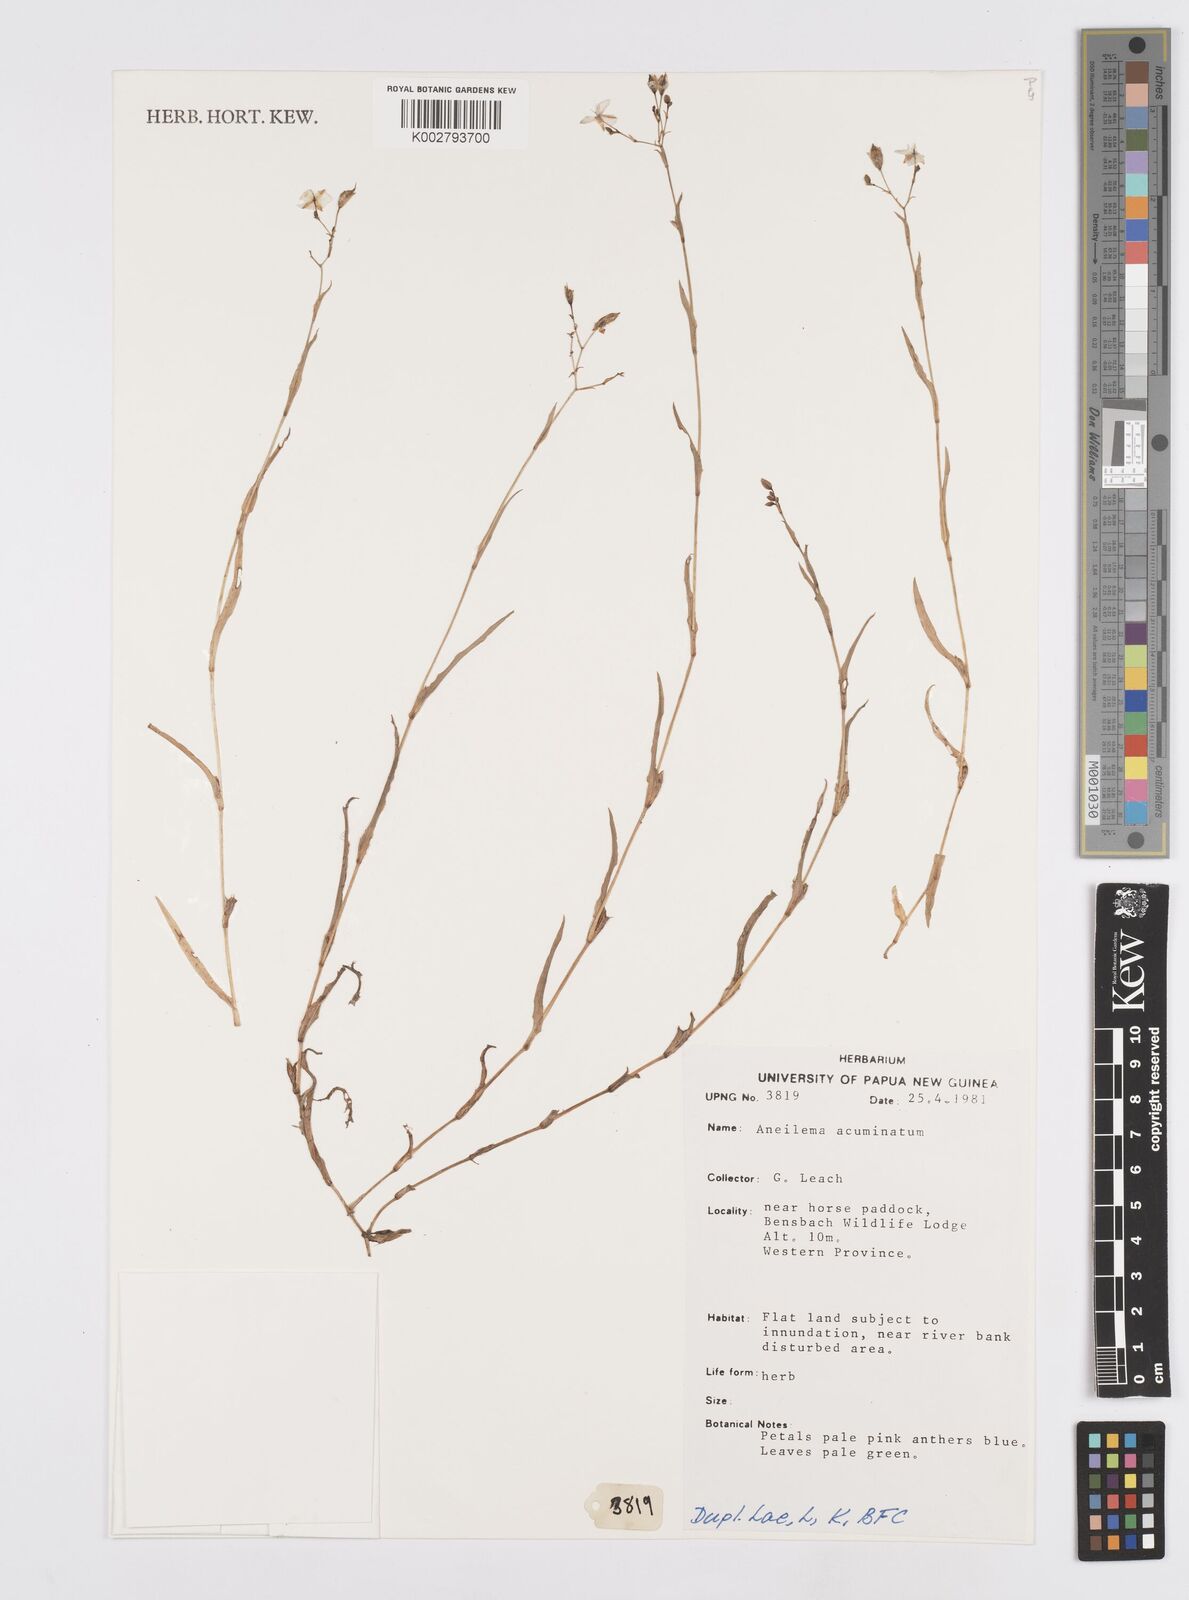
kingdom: Plantae
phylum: Tracheophyta
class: Liliopsida
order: Commelinales
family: Commelinaceae
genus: Murdannia
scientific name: Murdannia
